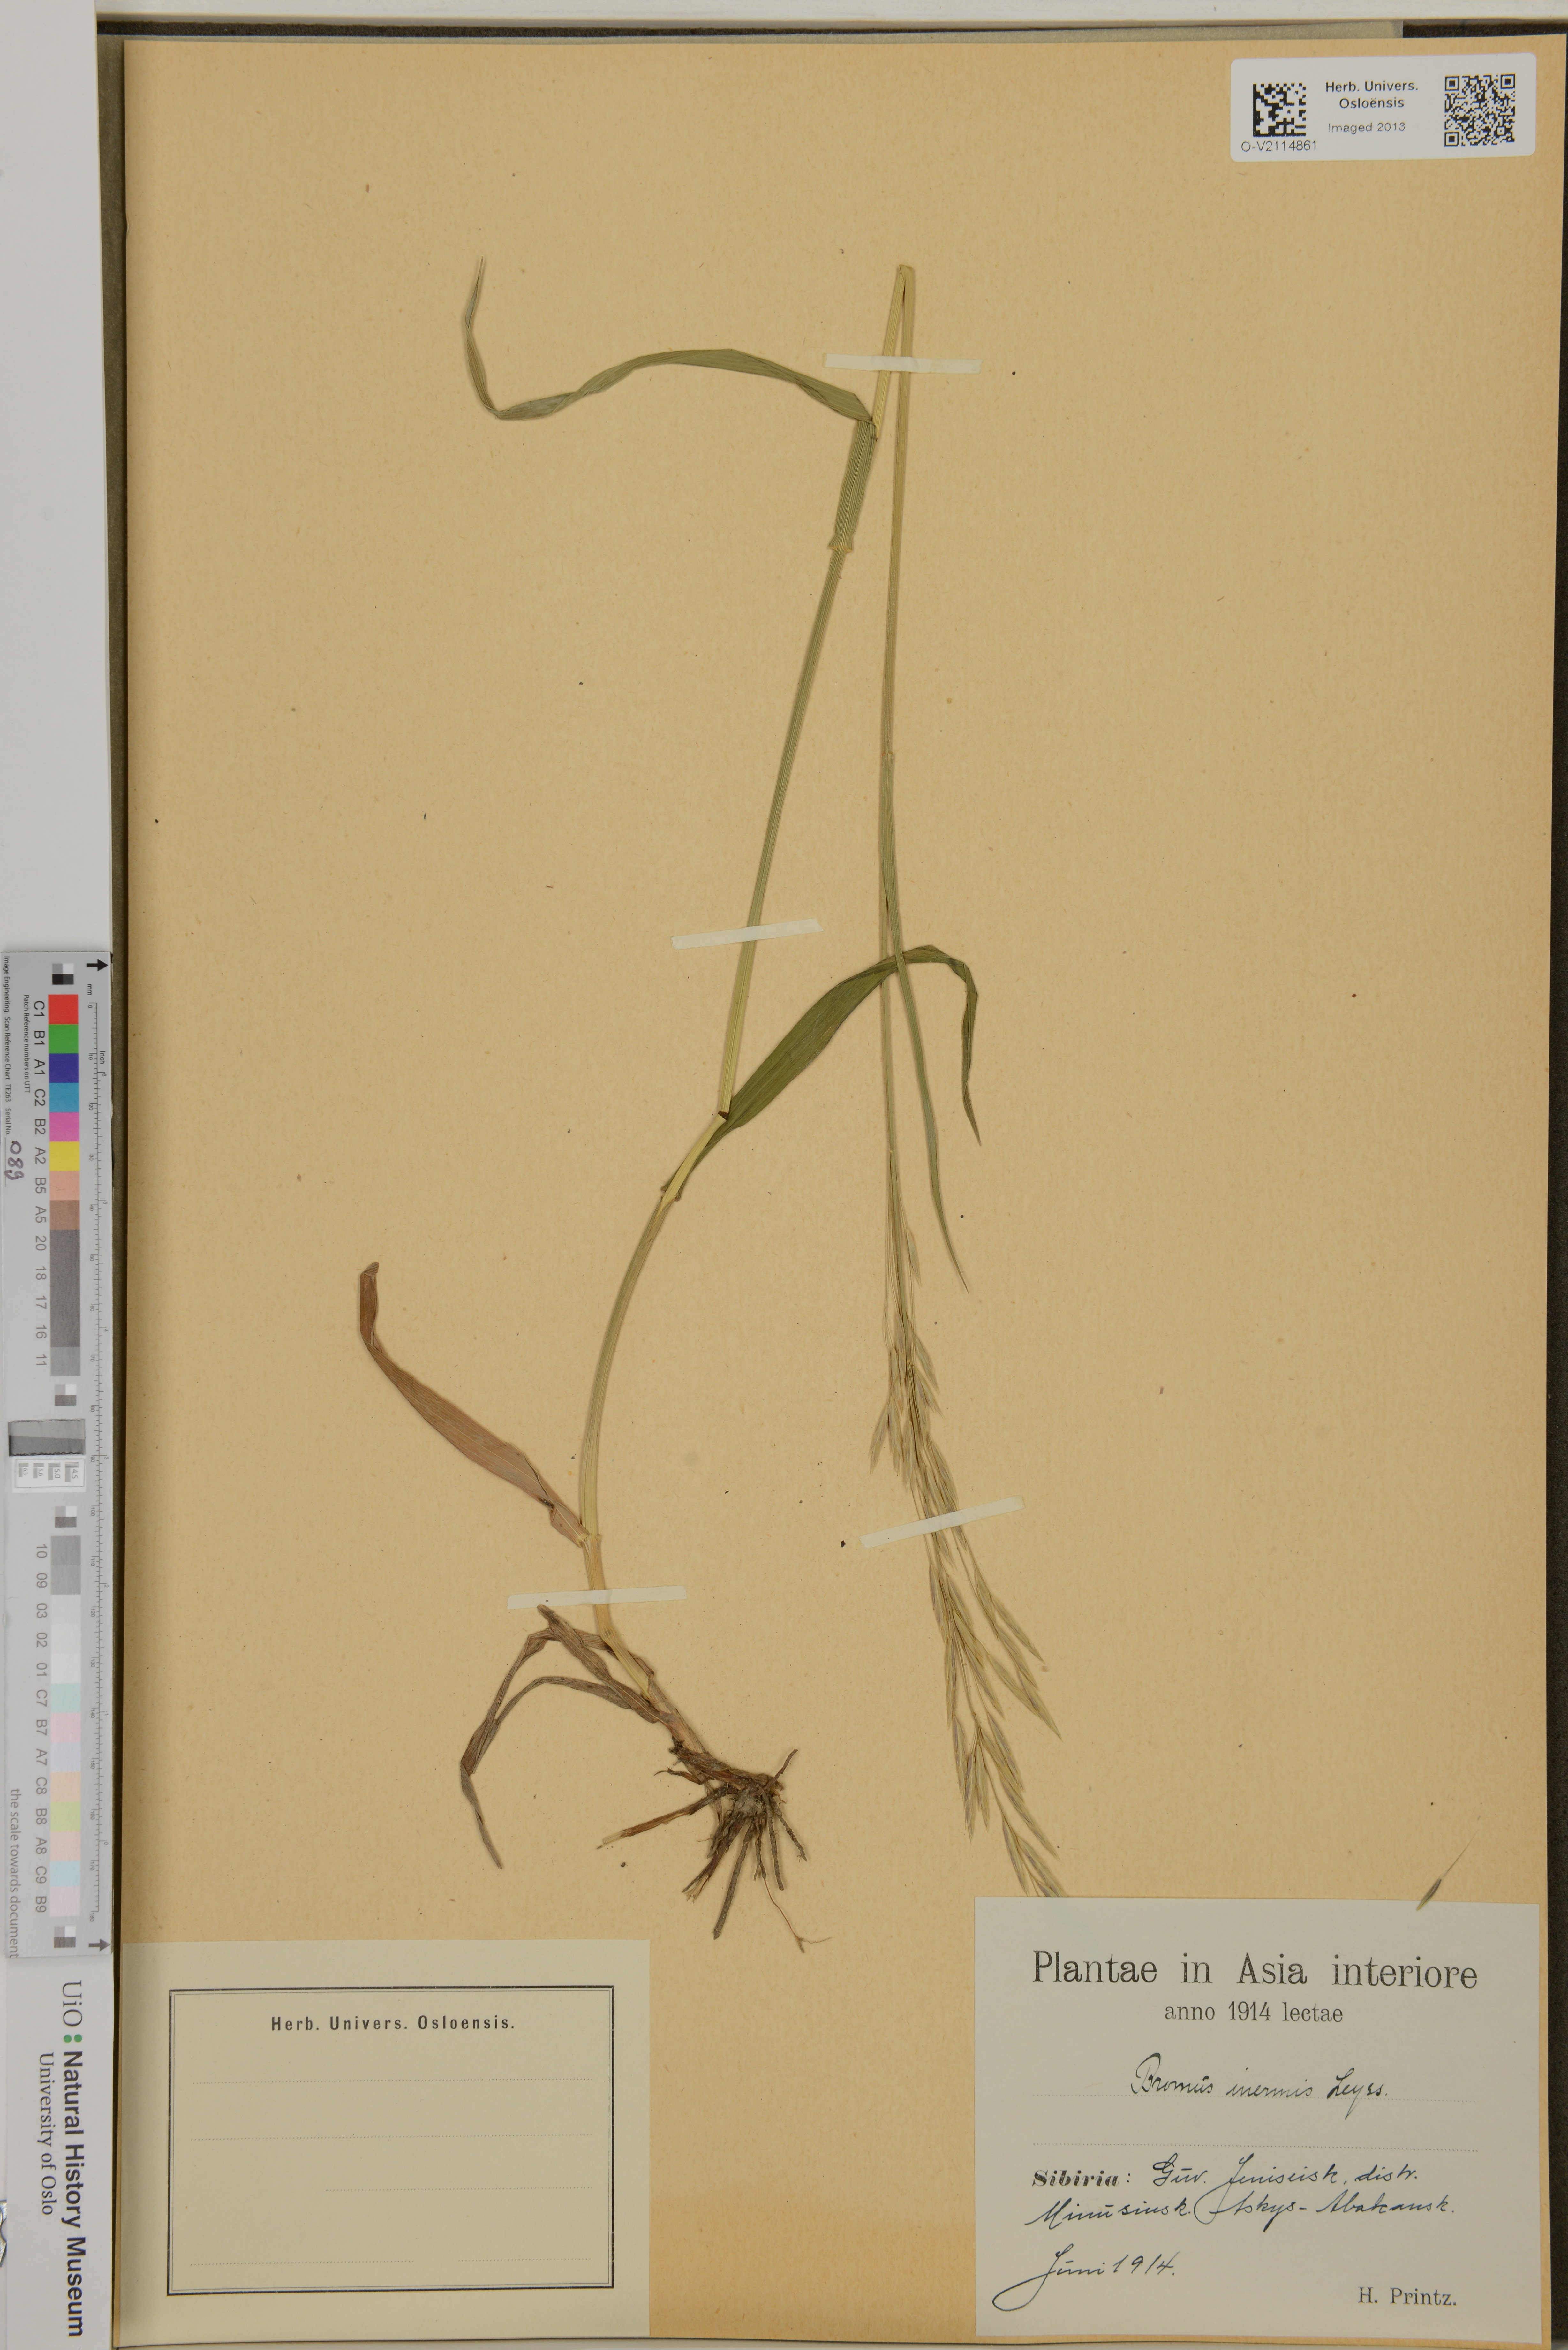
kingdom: Plantae
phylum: Tracheophyta
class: Liliopsida
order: Poales
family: Poaceae
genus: Bromus
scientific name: Bromus inermis
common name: Smooth brome
